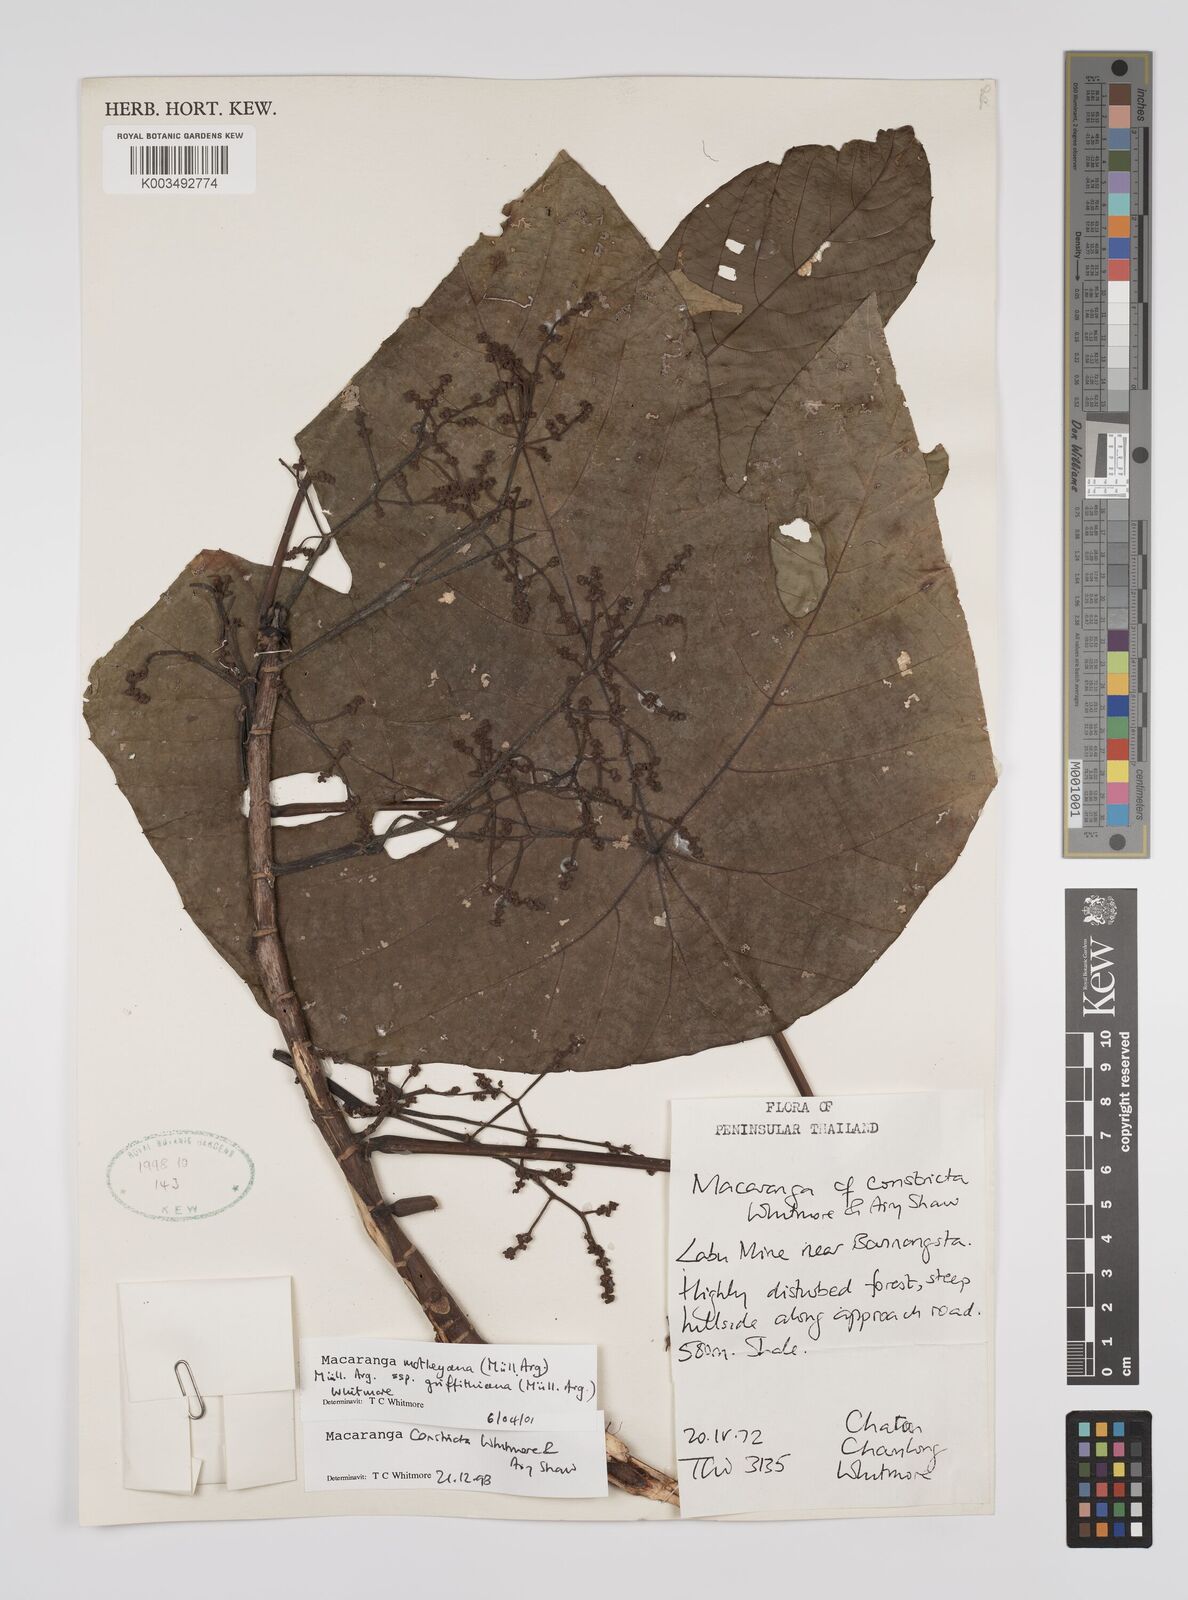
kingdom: Plantae
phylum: Tracheophyta
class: Magnoliopsida
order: Malpighiales
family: Euphorbiaceae
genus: Macaranga
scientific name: Macaranga griffithiana
